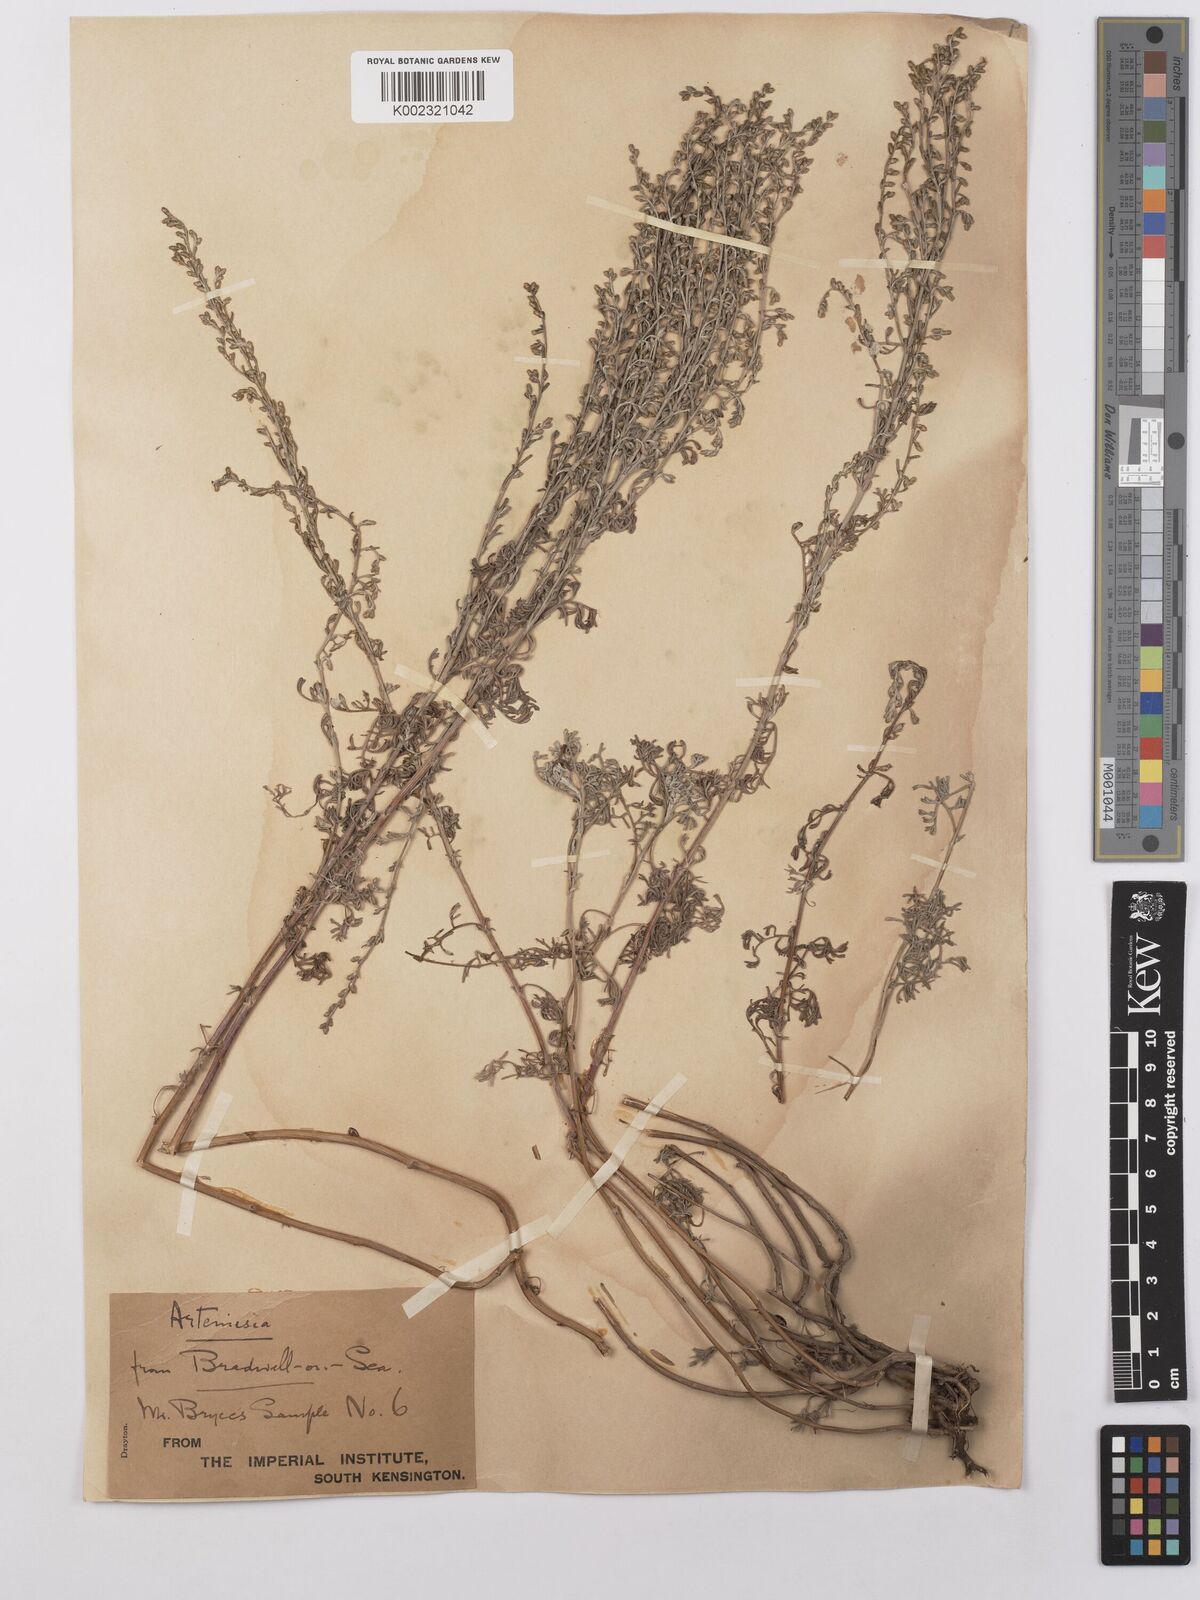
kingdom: Plantae
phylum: Tracheophyta
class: Magnoliopsida
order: Asterales
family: Asteraceae
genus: Artemisia
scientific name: Artemisia maritima
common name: Wormseed
